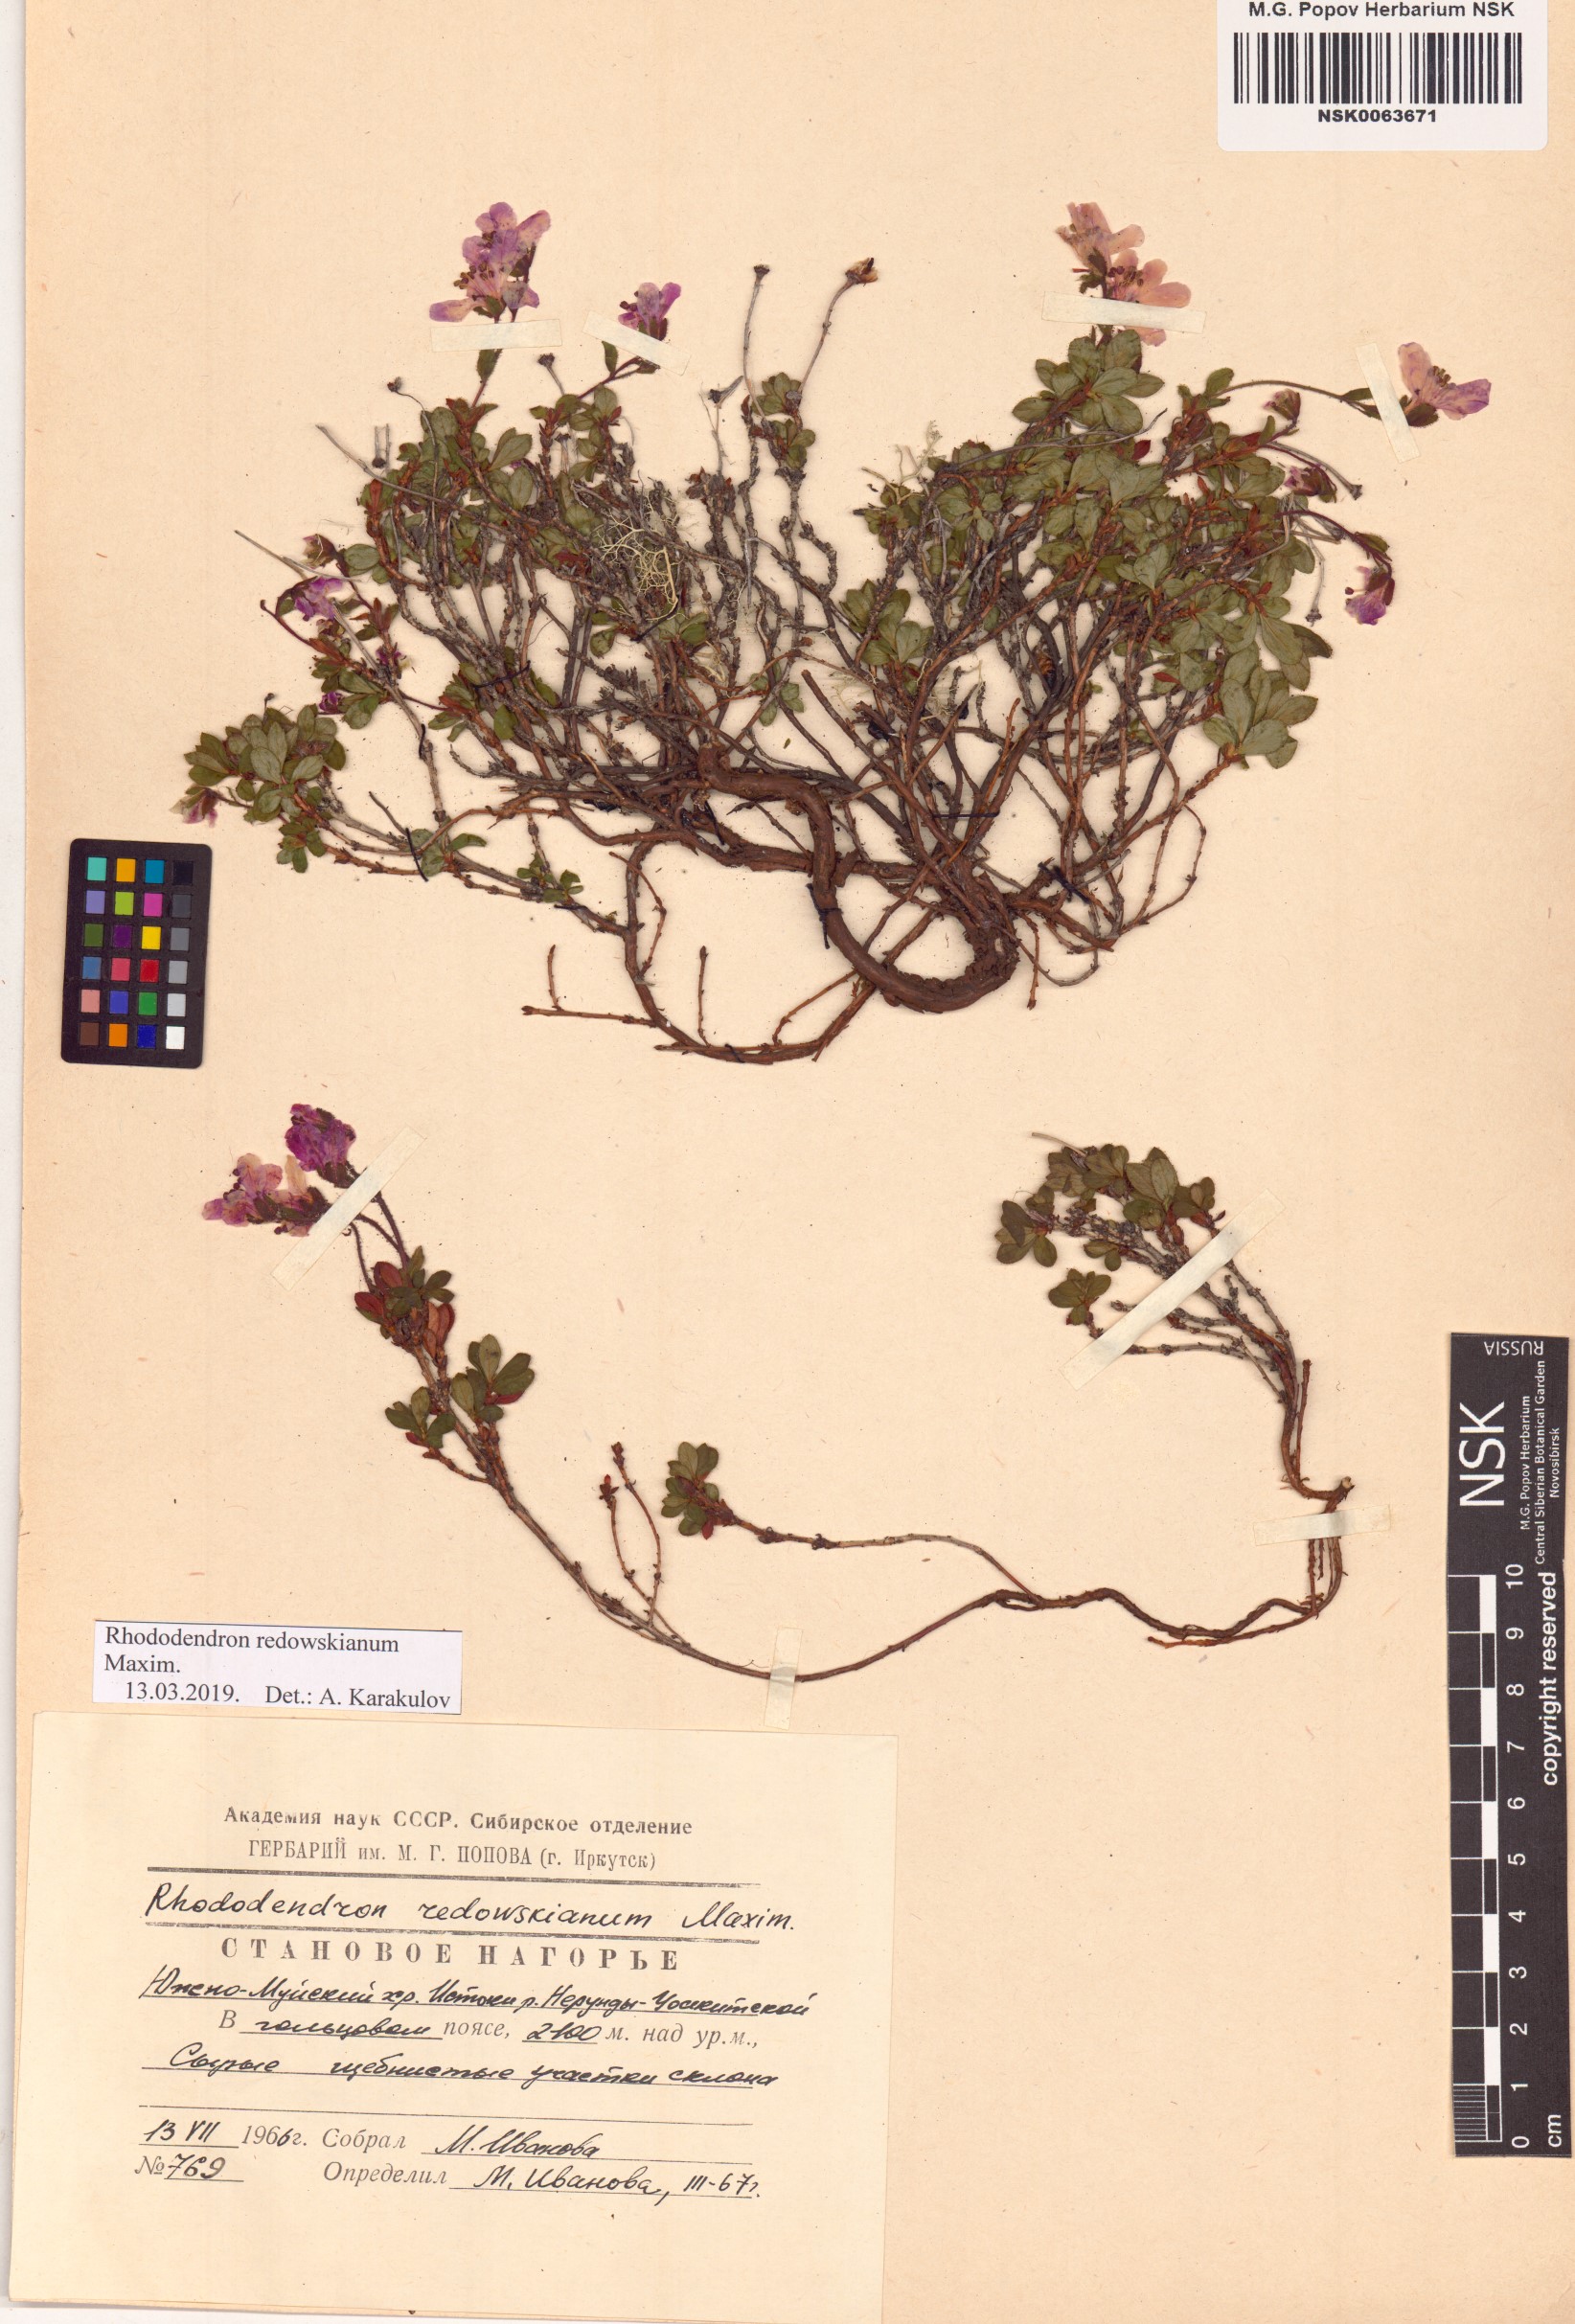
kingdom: Plantae
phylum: Tracheophyta
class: Magnoliopsida
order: Ericales
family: Ericaceae
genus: Rhododendron
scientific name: Rhododendron redowskianum
